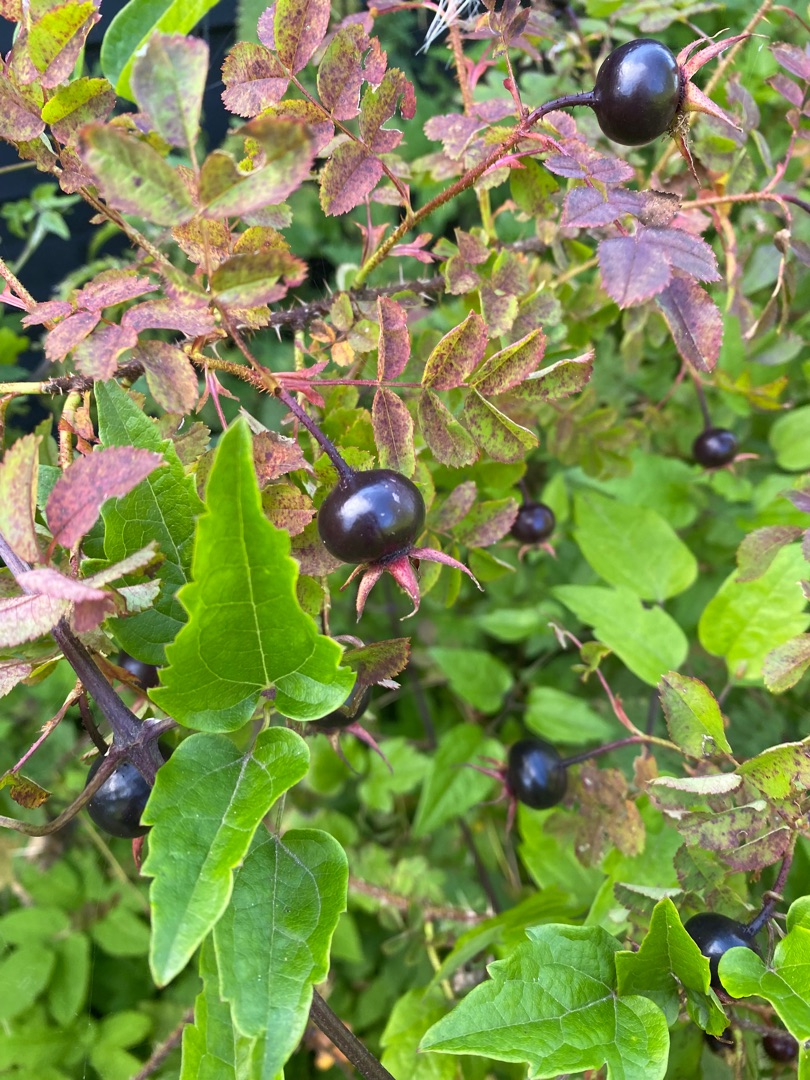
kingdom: Plantae
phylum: Tracheophyta
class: Magnoliopsida
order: Rosales
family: Rosaceae
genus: Rosa
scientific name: Rosa spinosissima
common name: Klit-rose
